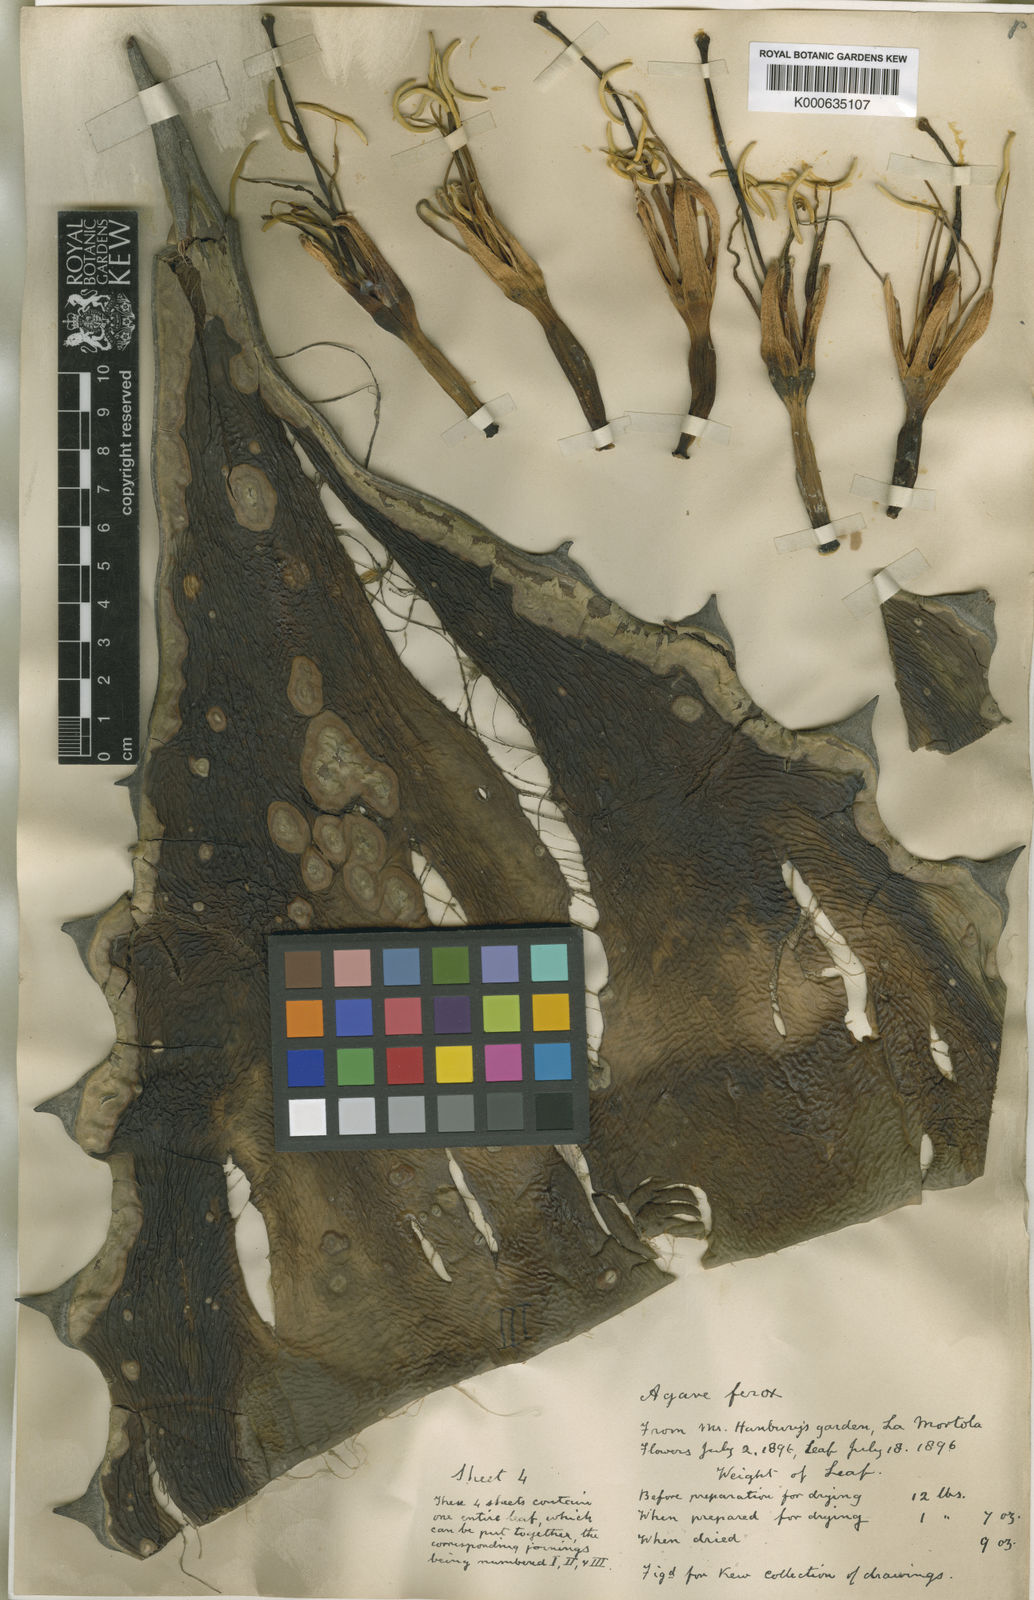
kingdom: Plantae
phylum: Tracheophyta
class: Liliopsida
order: Asparagales
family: Asparagaceae
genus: Agave
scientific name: Agave salmiana
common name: Pulque agave
